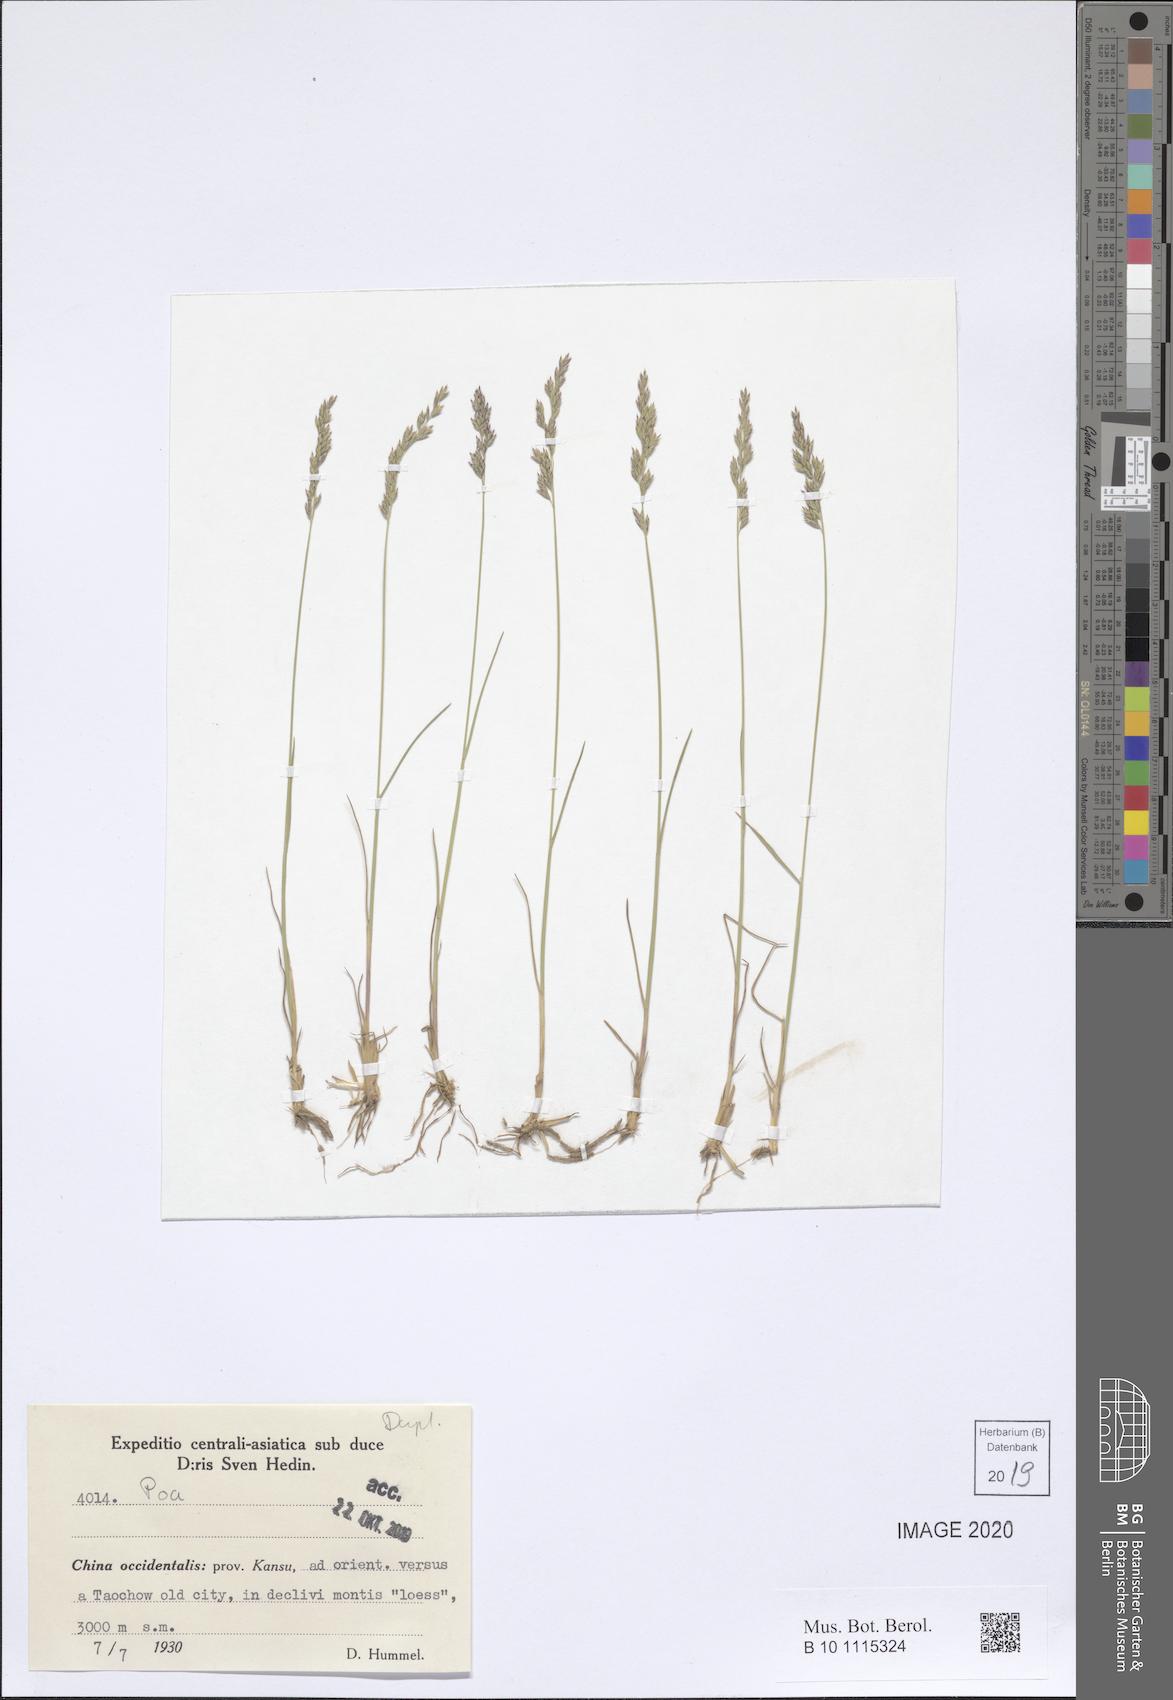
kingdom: Plantae
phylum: Tracheophyta
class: Liliopsida
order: Poales
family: Poaceae
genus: Poa
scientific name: Poa
